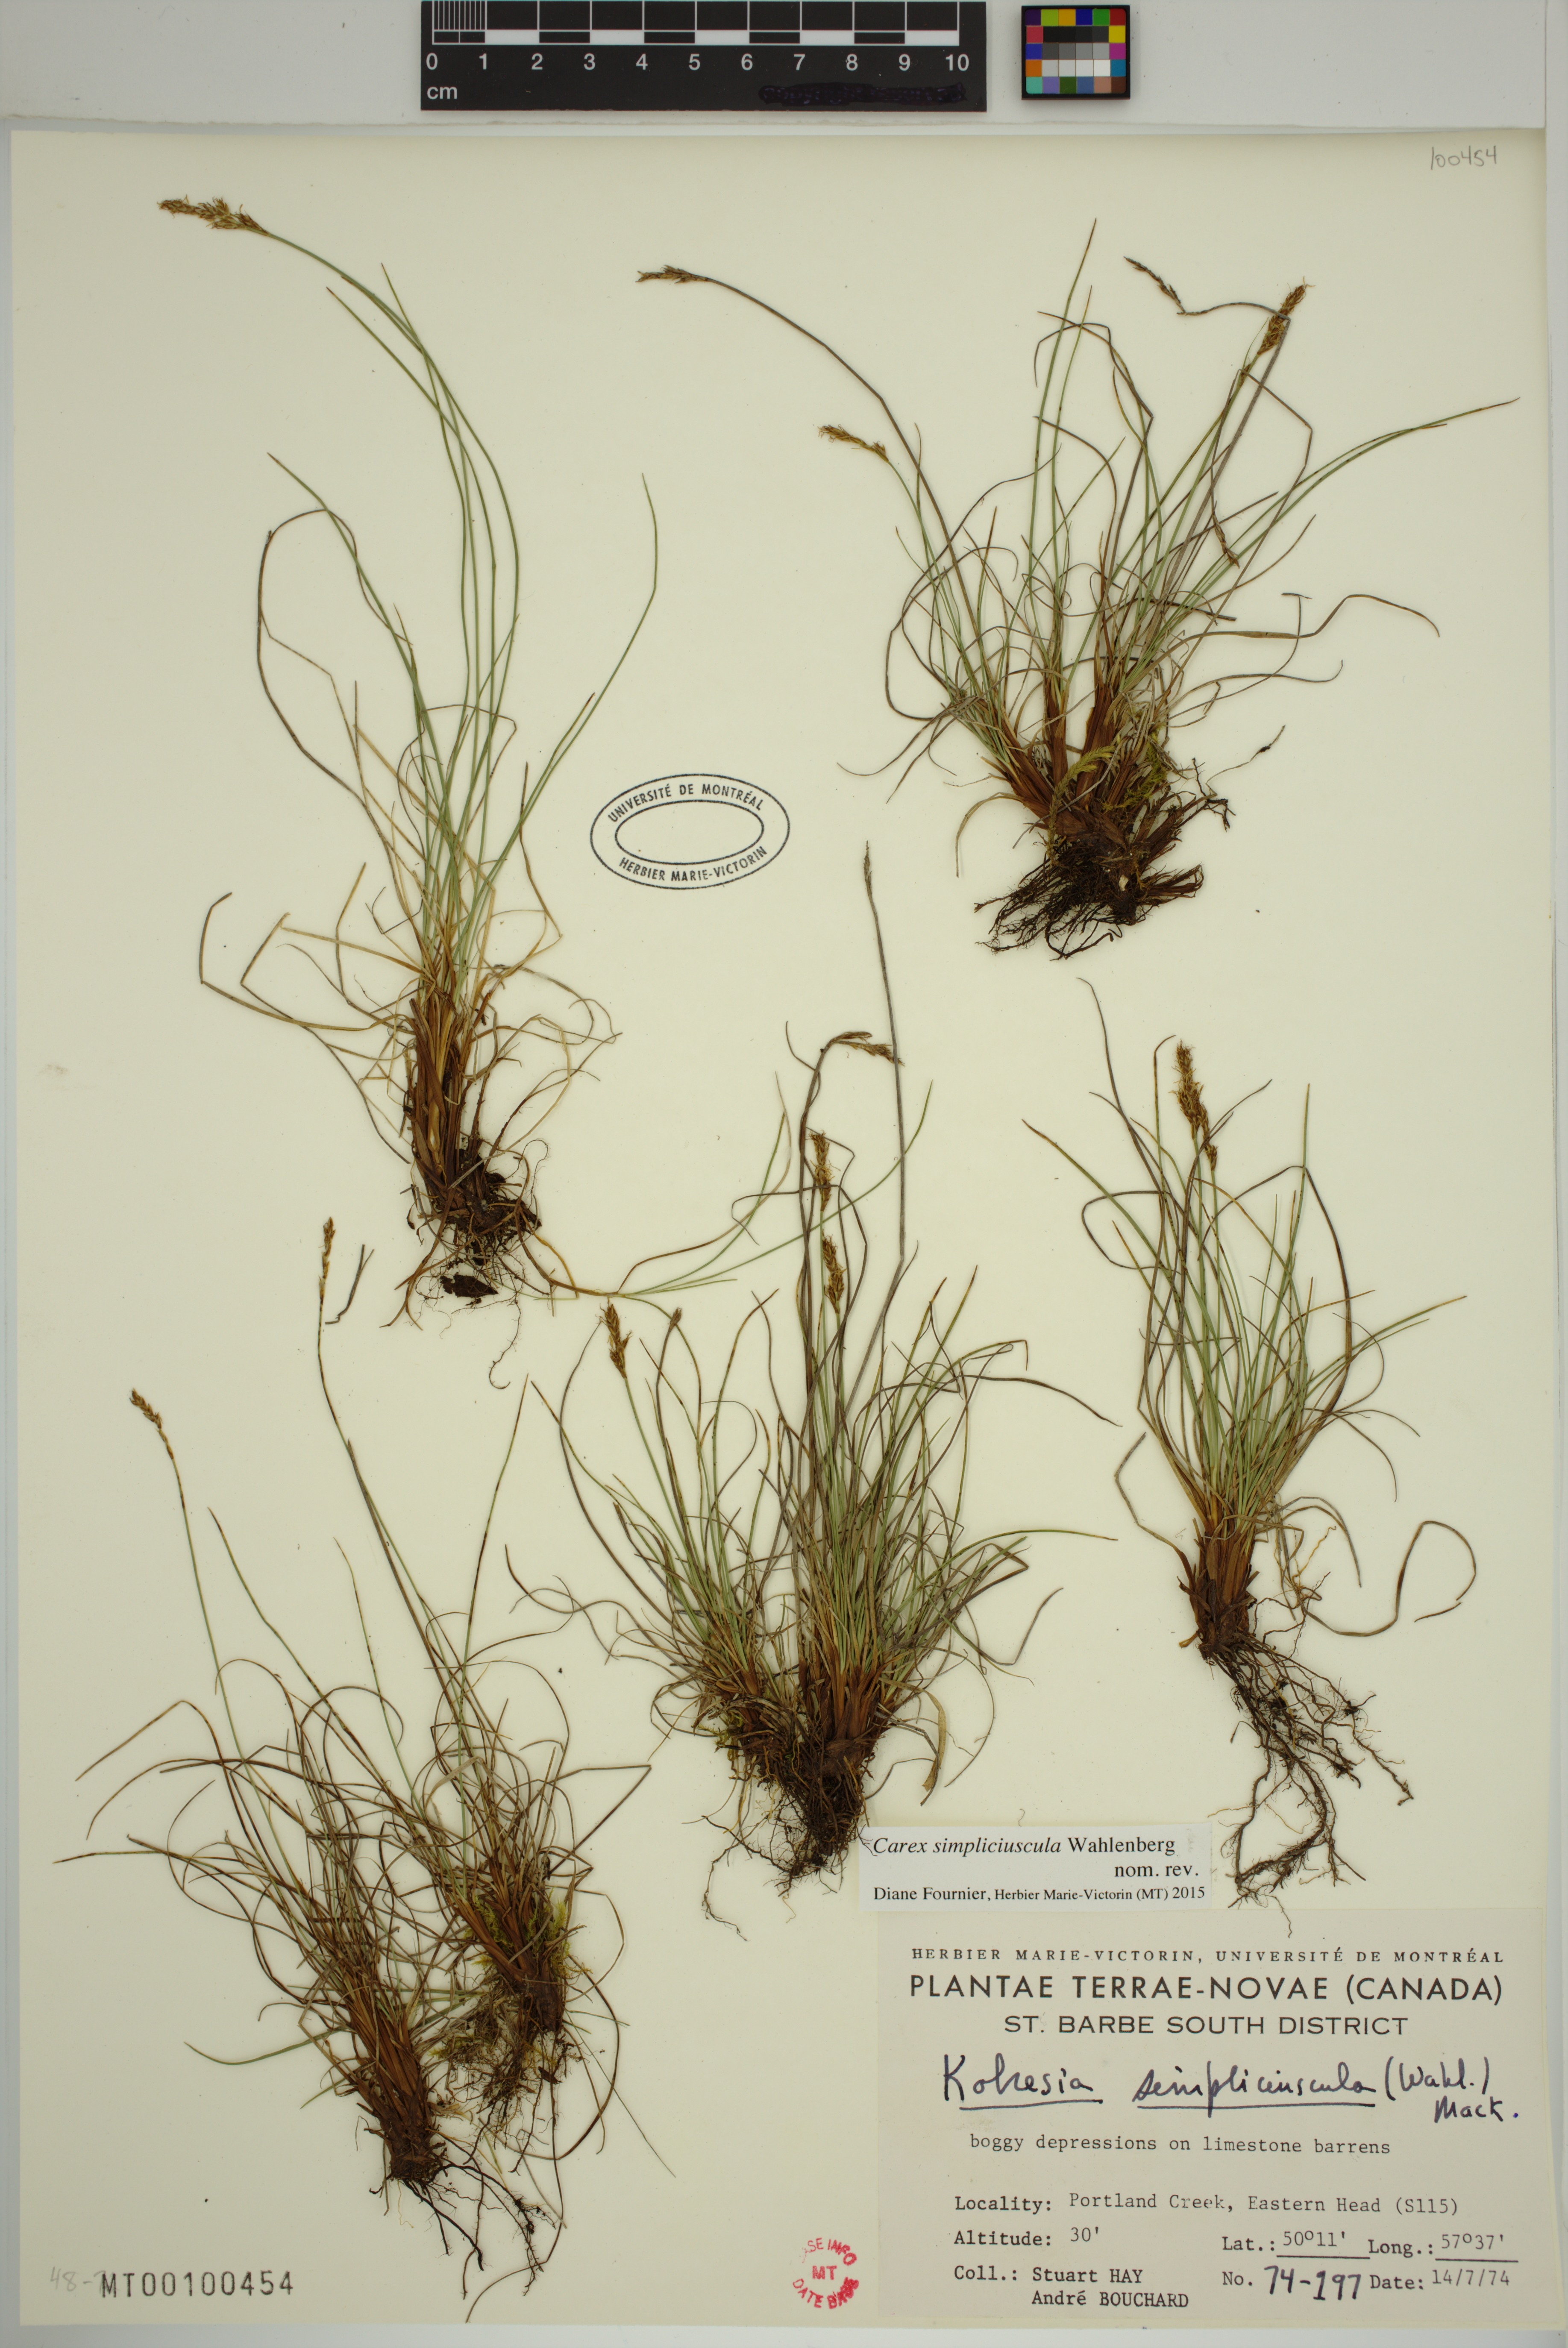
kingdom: Plantae
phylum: Tracheophyta
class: Liliopsida
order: Poales
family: Cyperaceae
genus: Carex
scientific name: Carex simpliciuscula
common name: Simple bog sedge
